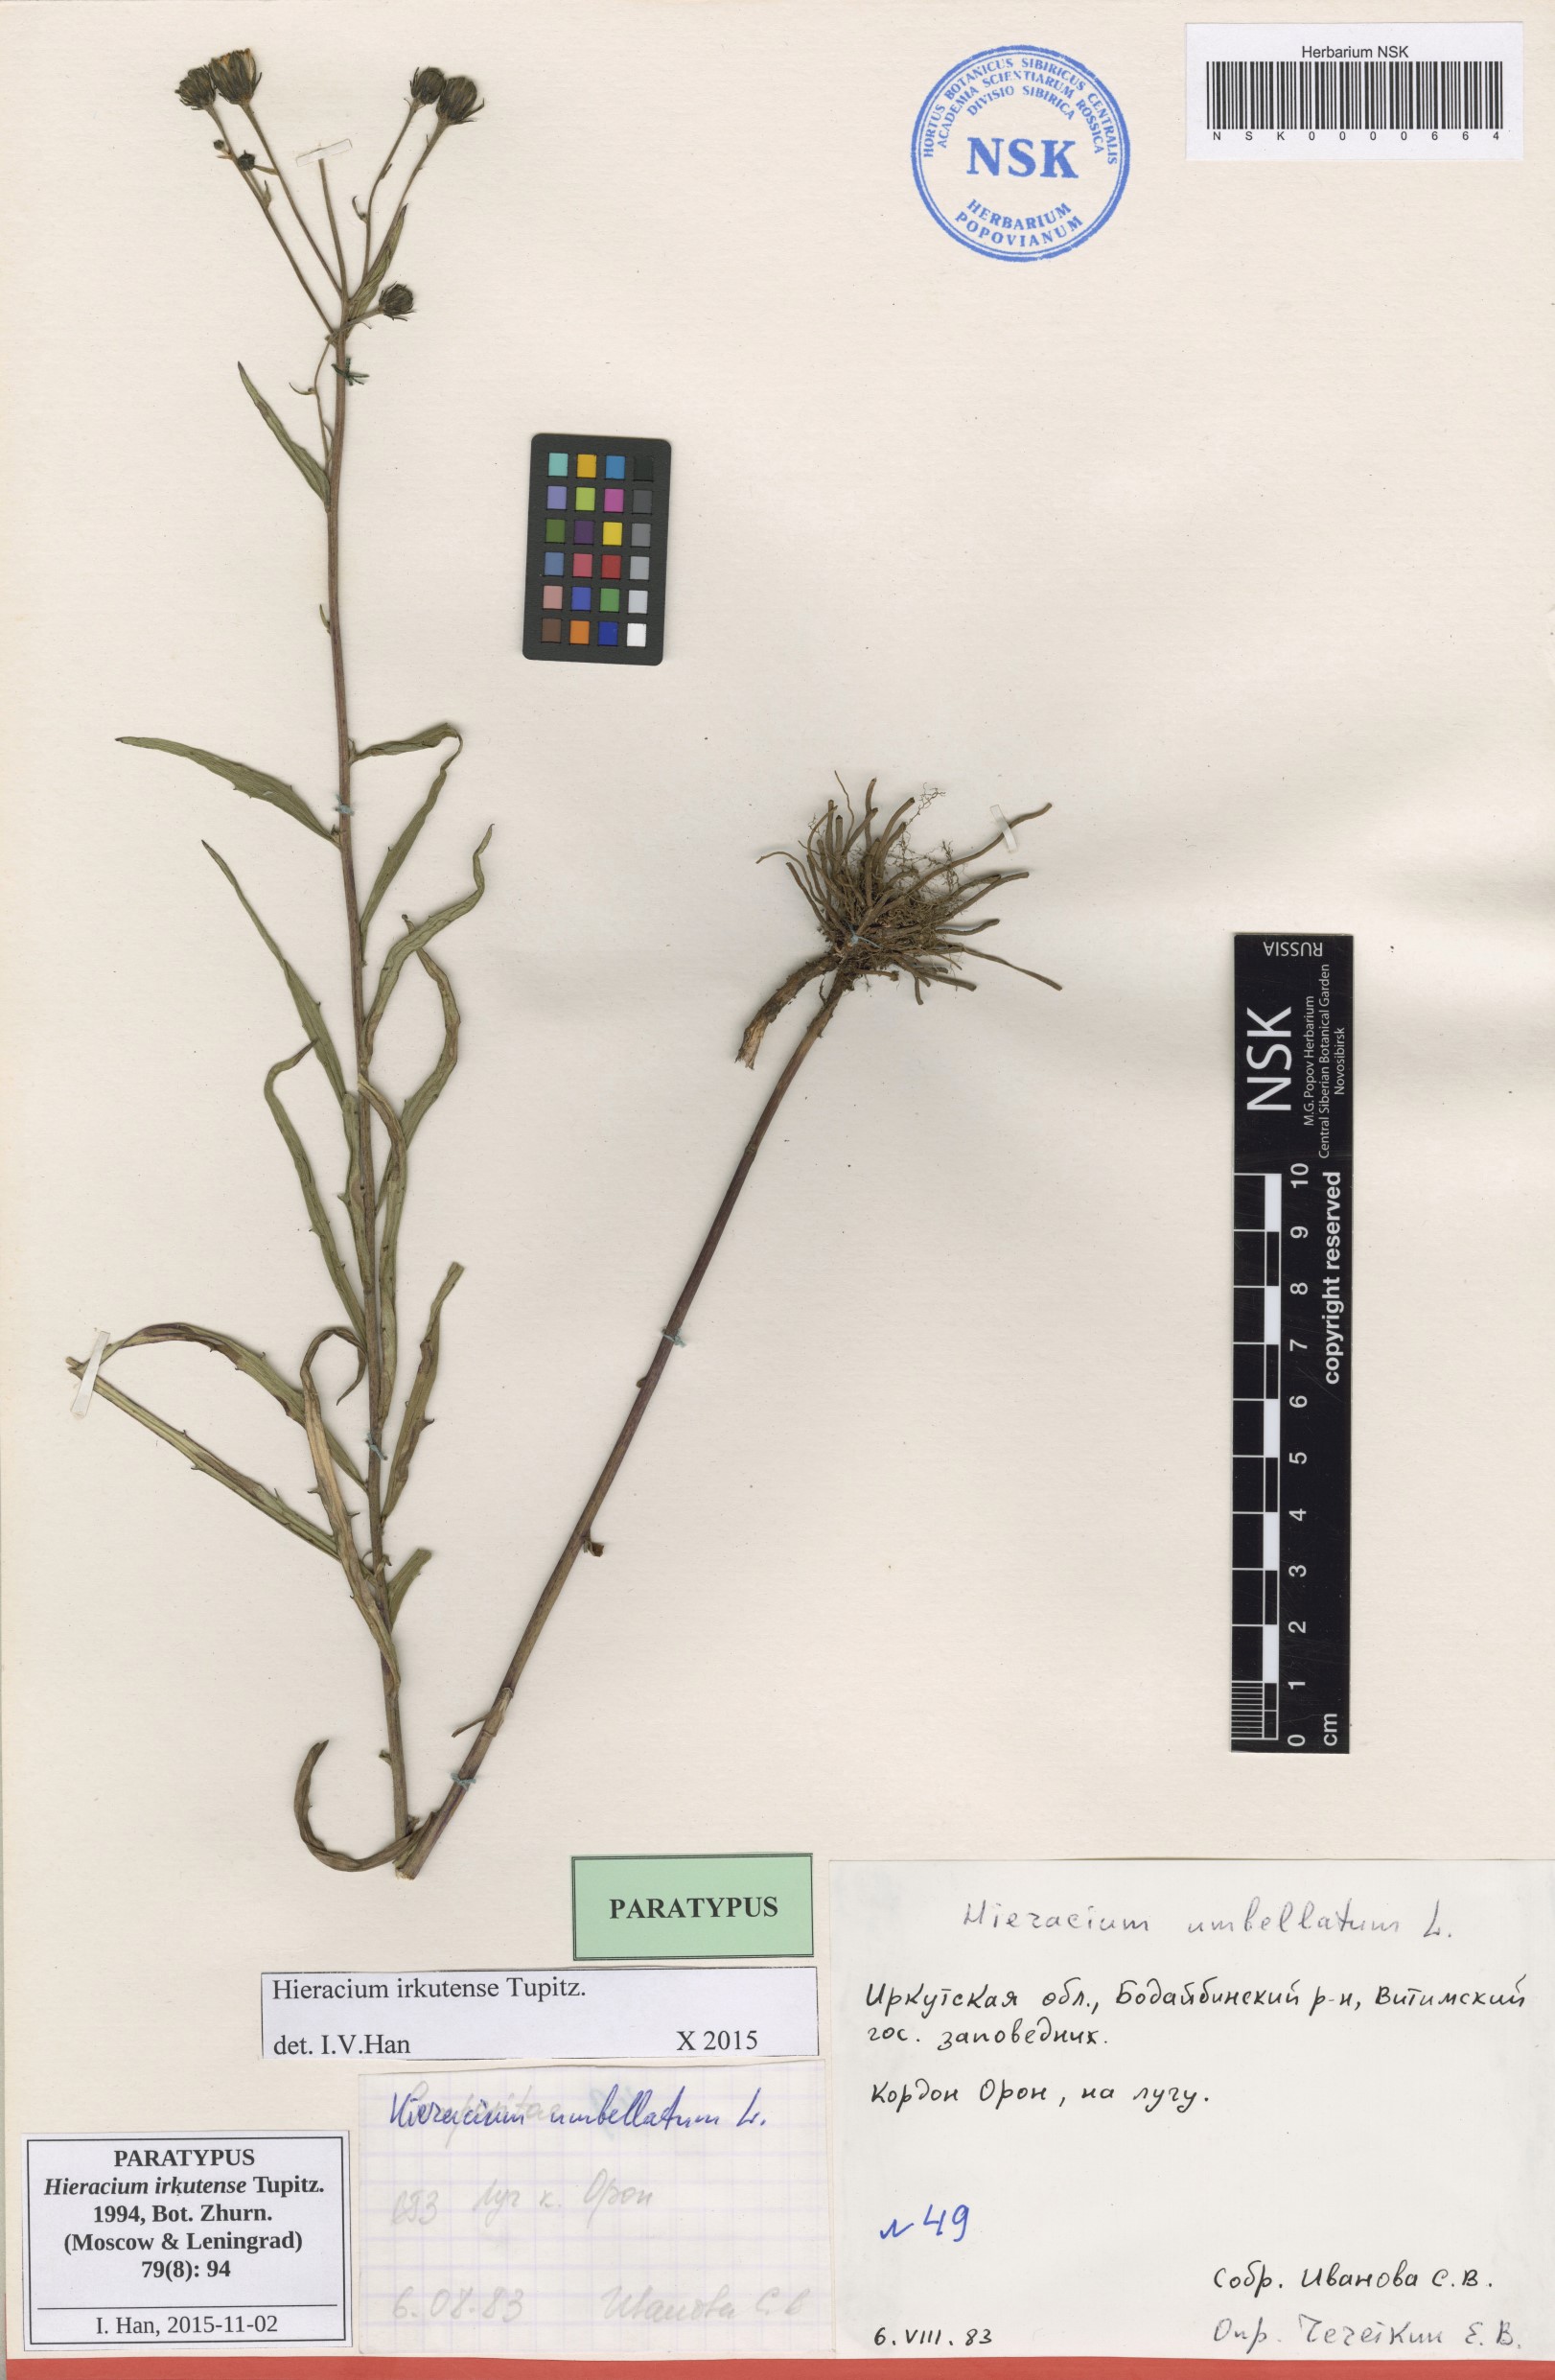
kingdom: Plantae
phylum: Tracheophyta
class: Magnoliopsida
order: Asterales
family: Asteraceae
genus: Hieracium
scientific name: Hieracium irkutense
